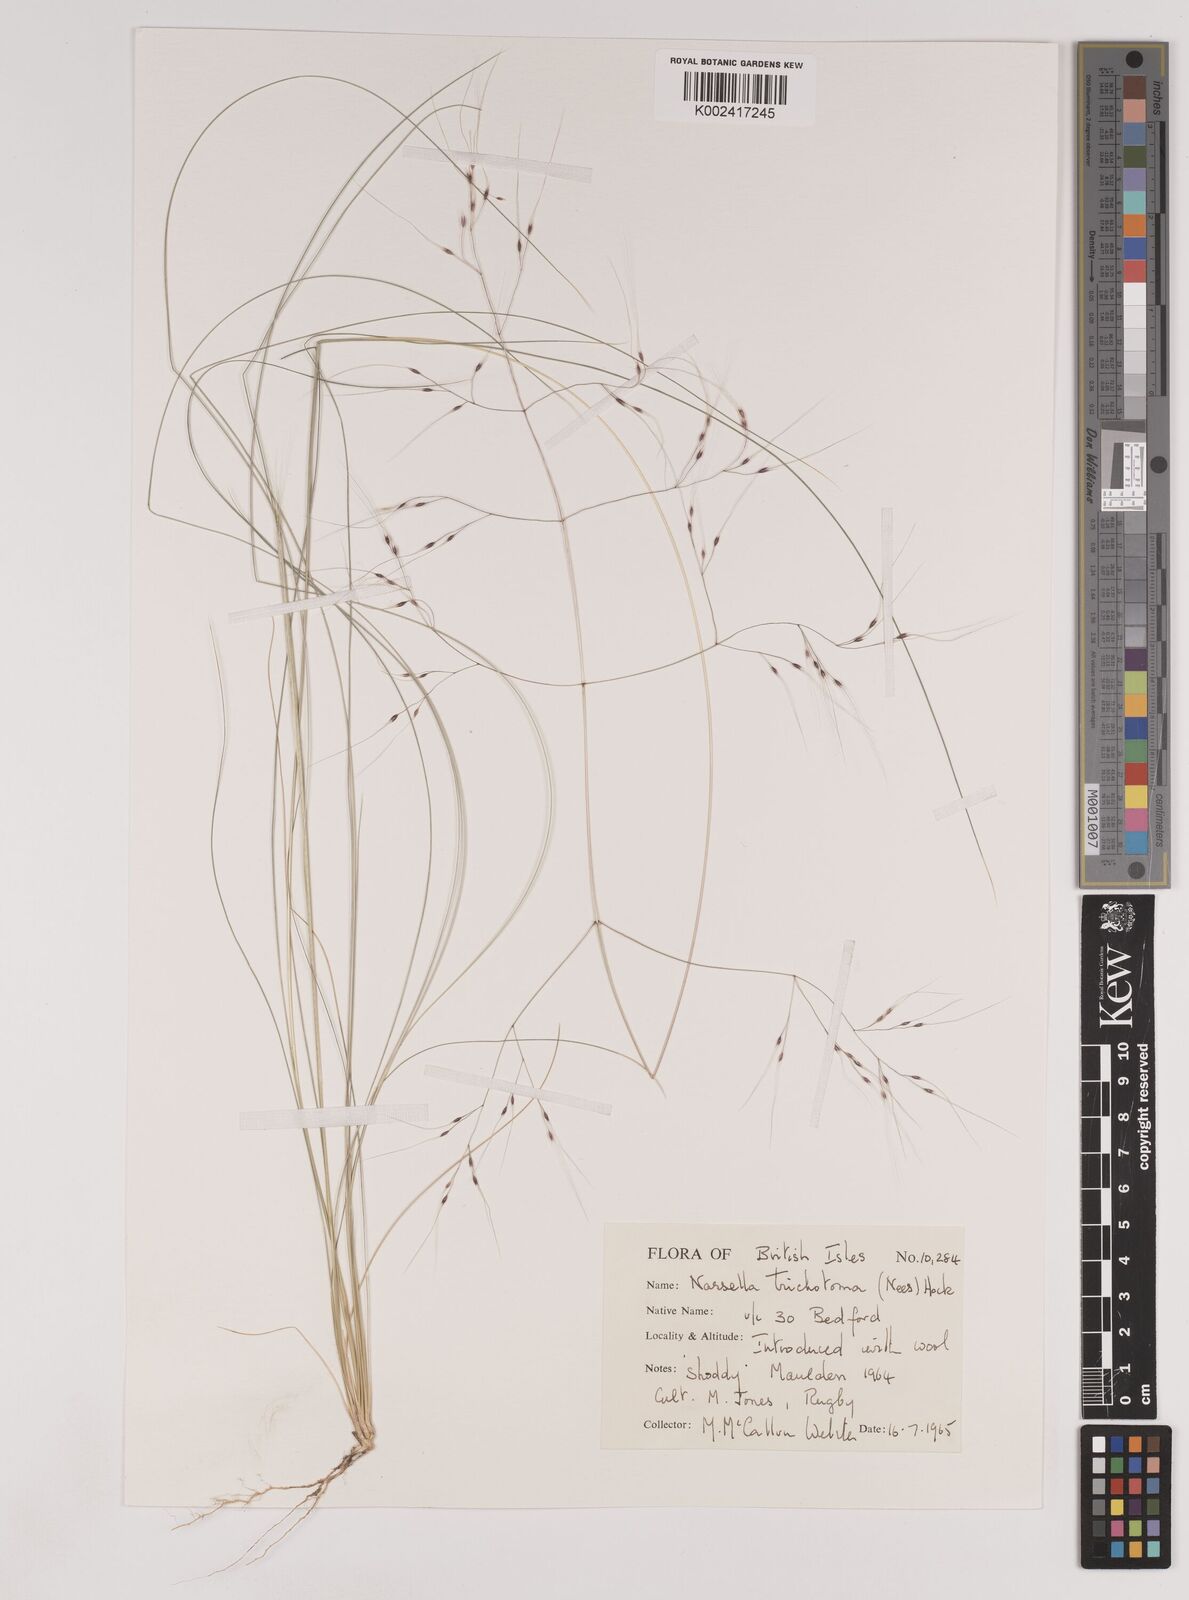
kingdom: Plantae
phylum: Tracheophyta
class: Liliopsida
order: Poales
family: Poaceae
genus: Nassella
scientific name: Nassella trichotoma
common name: Serrated tussock grass
